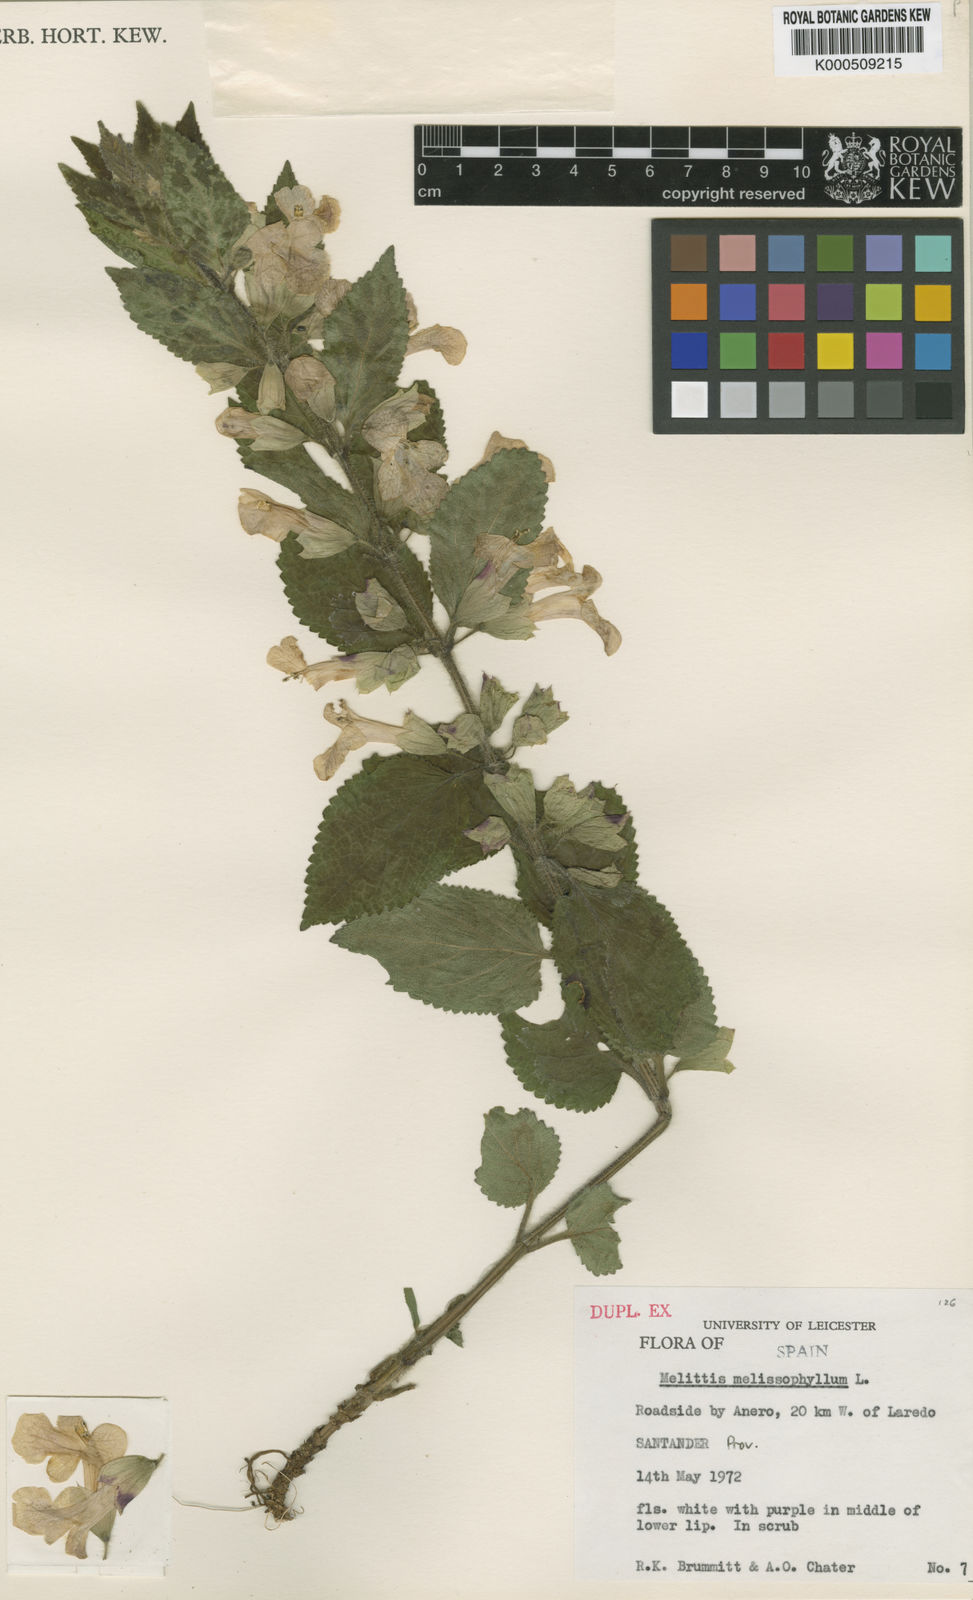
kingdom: Plantae
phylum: Tracheophyta
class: Magnoliopsida
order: Lamiales
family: Lamiaceae
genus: Melittis
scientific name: Melittis melissophyllum
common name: Bastard balm
